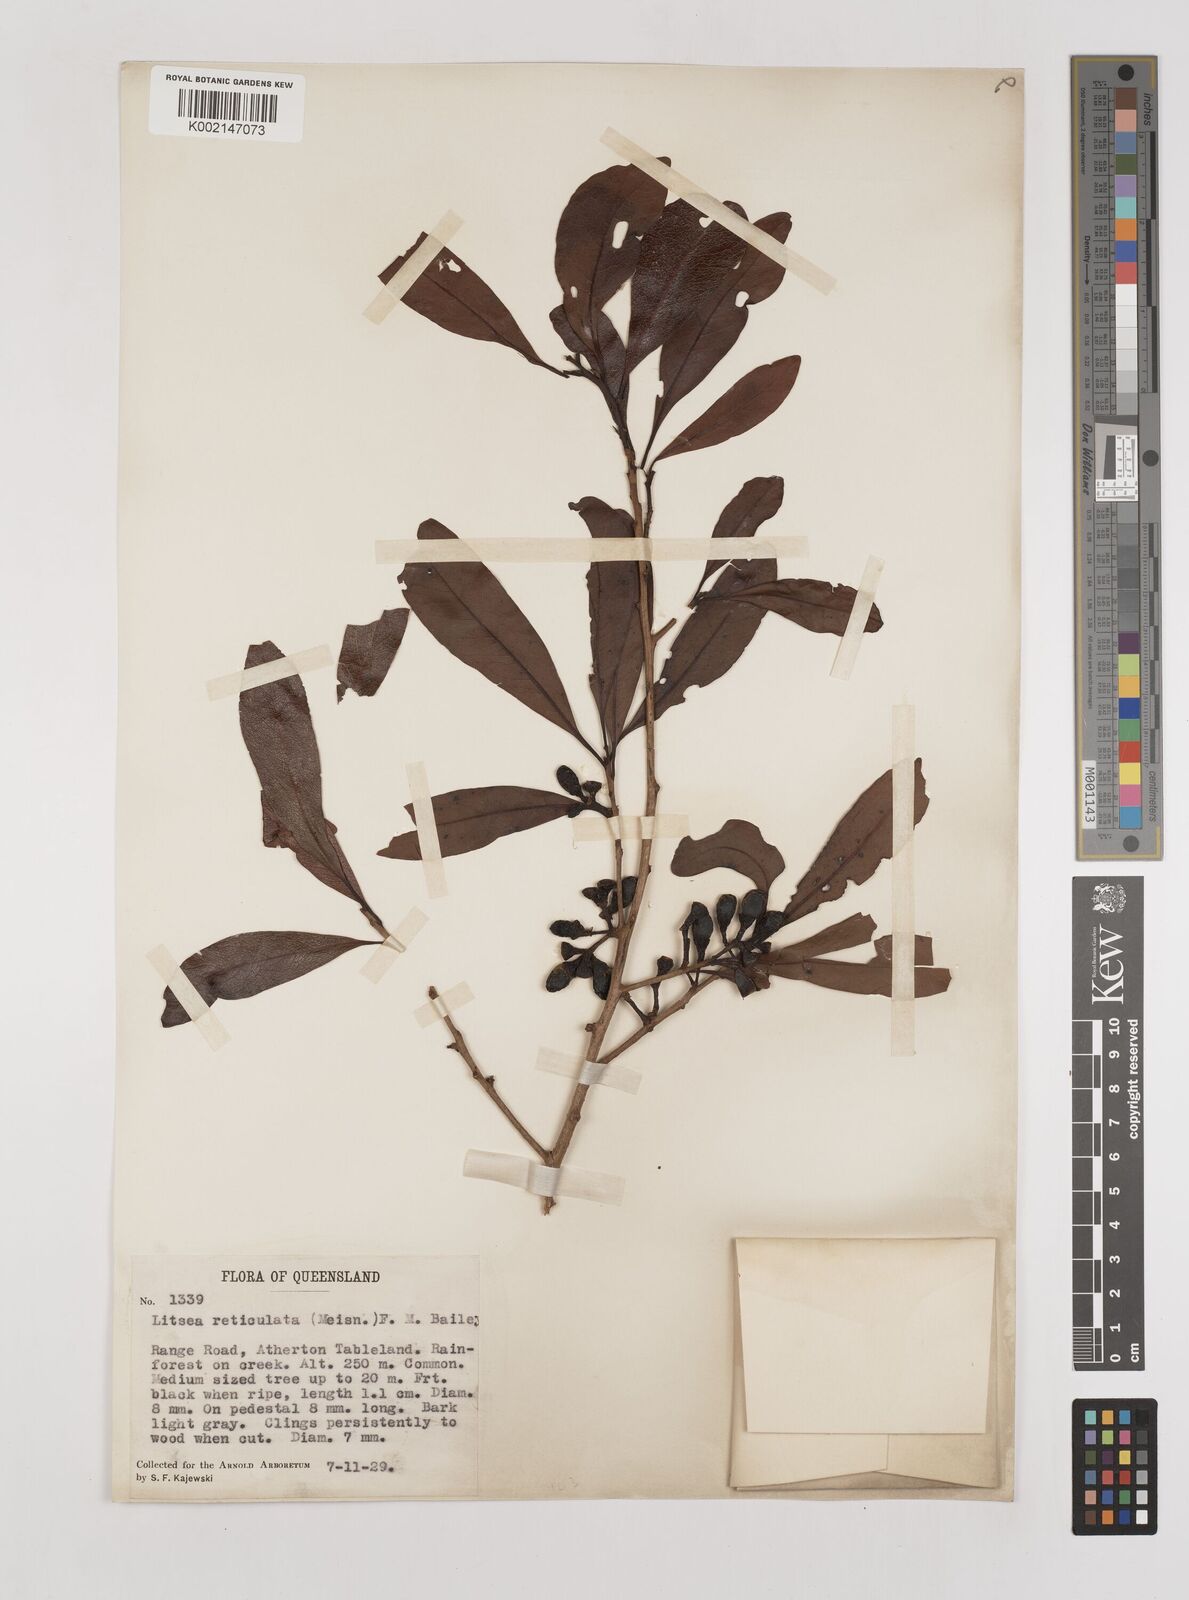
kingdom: Plantae
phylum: Tracheophyta
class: Magnoliopsida
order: Laurales
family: Lauraceae
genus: Litsea
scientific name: Litsea reticulata
